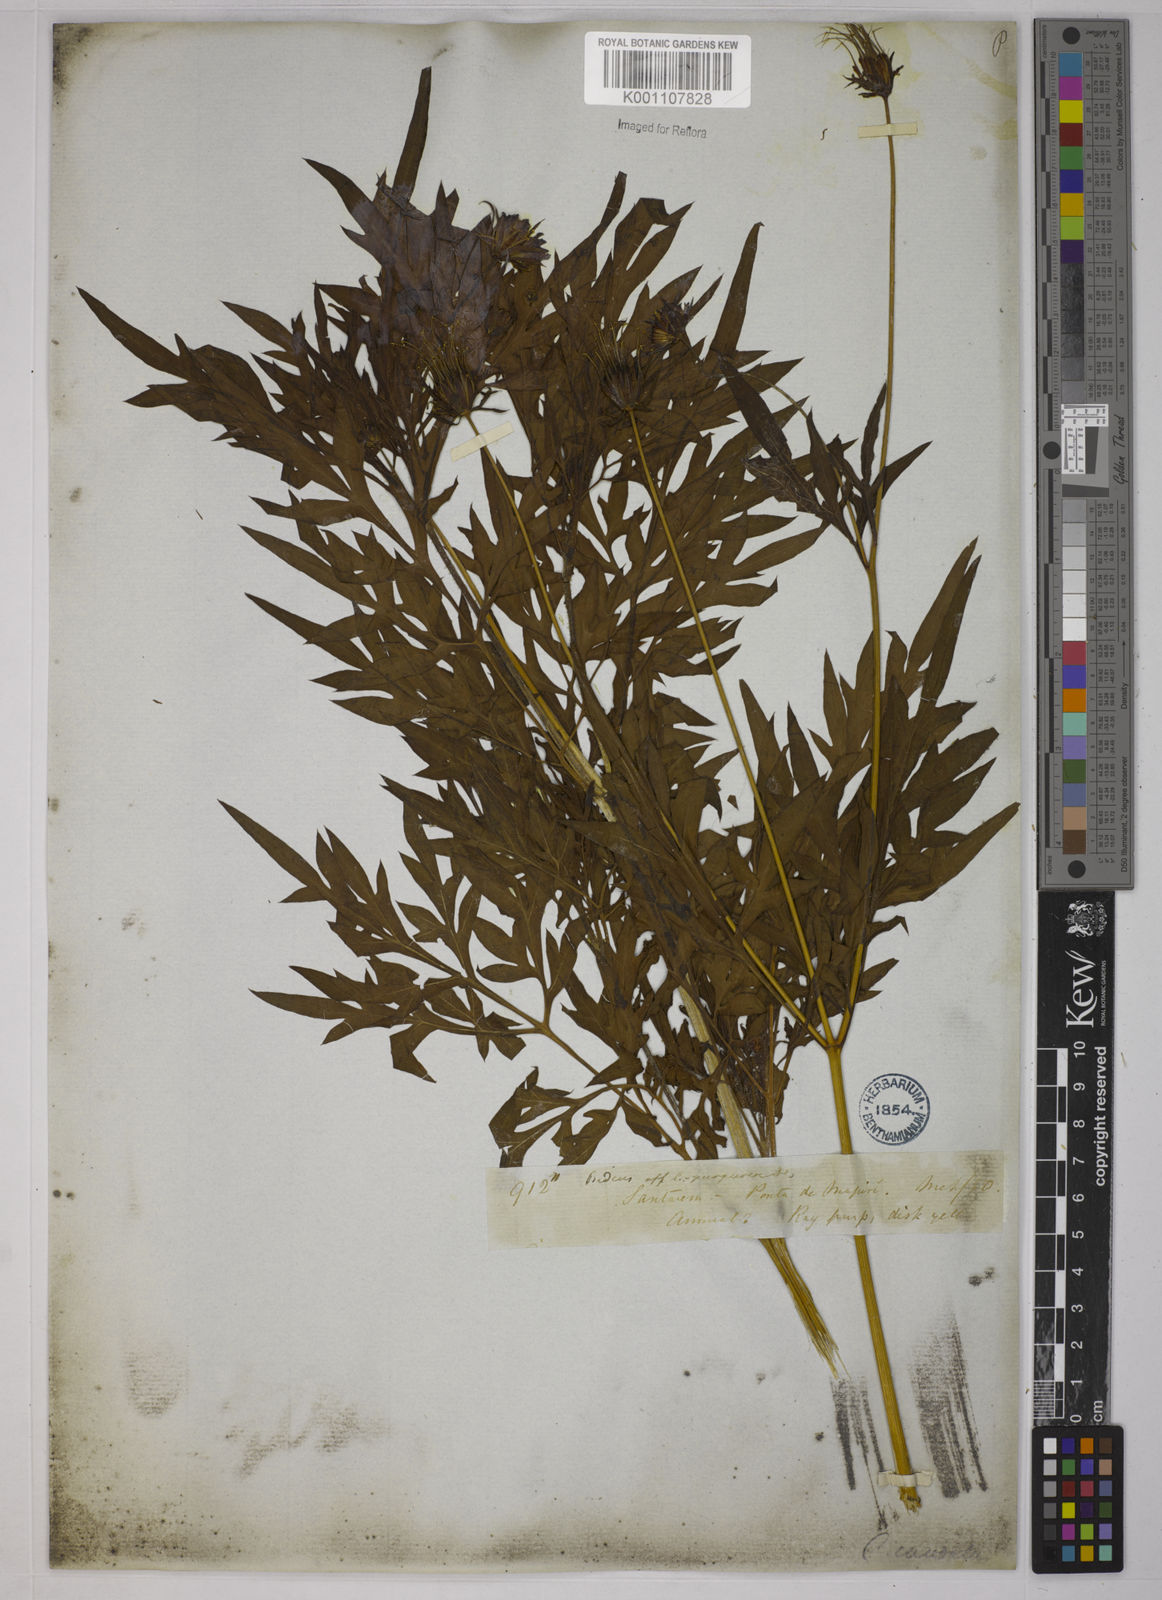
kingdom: Plantae
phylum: Tracheophyta
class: Magnoliopsida
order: Asterales
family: Asteraceae
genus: Cosmos
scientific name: Cosmos caudatus
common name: Wild cosmos
